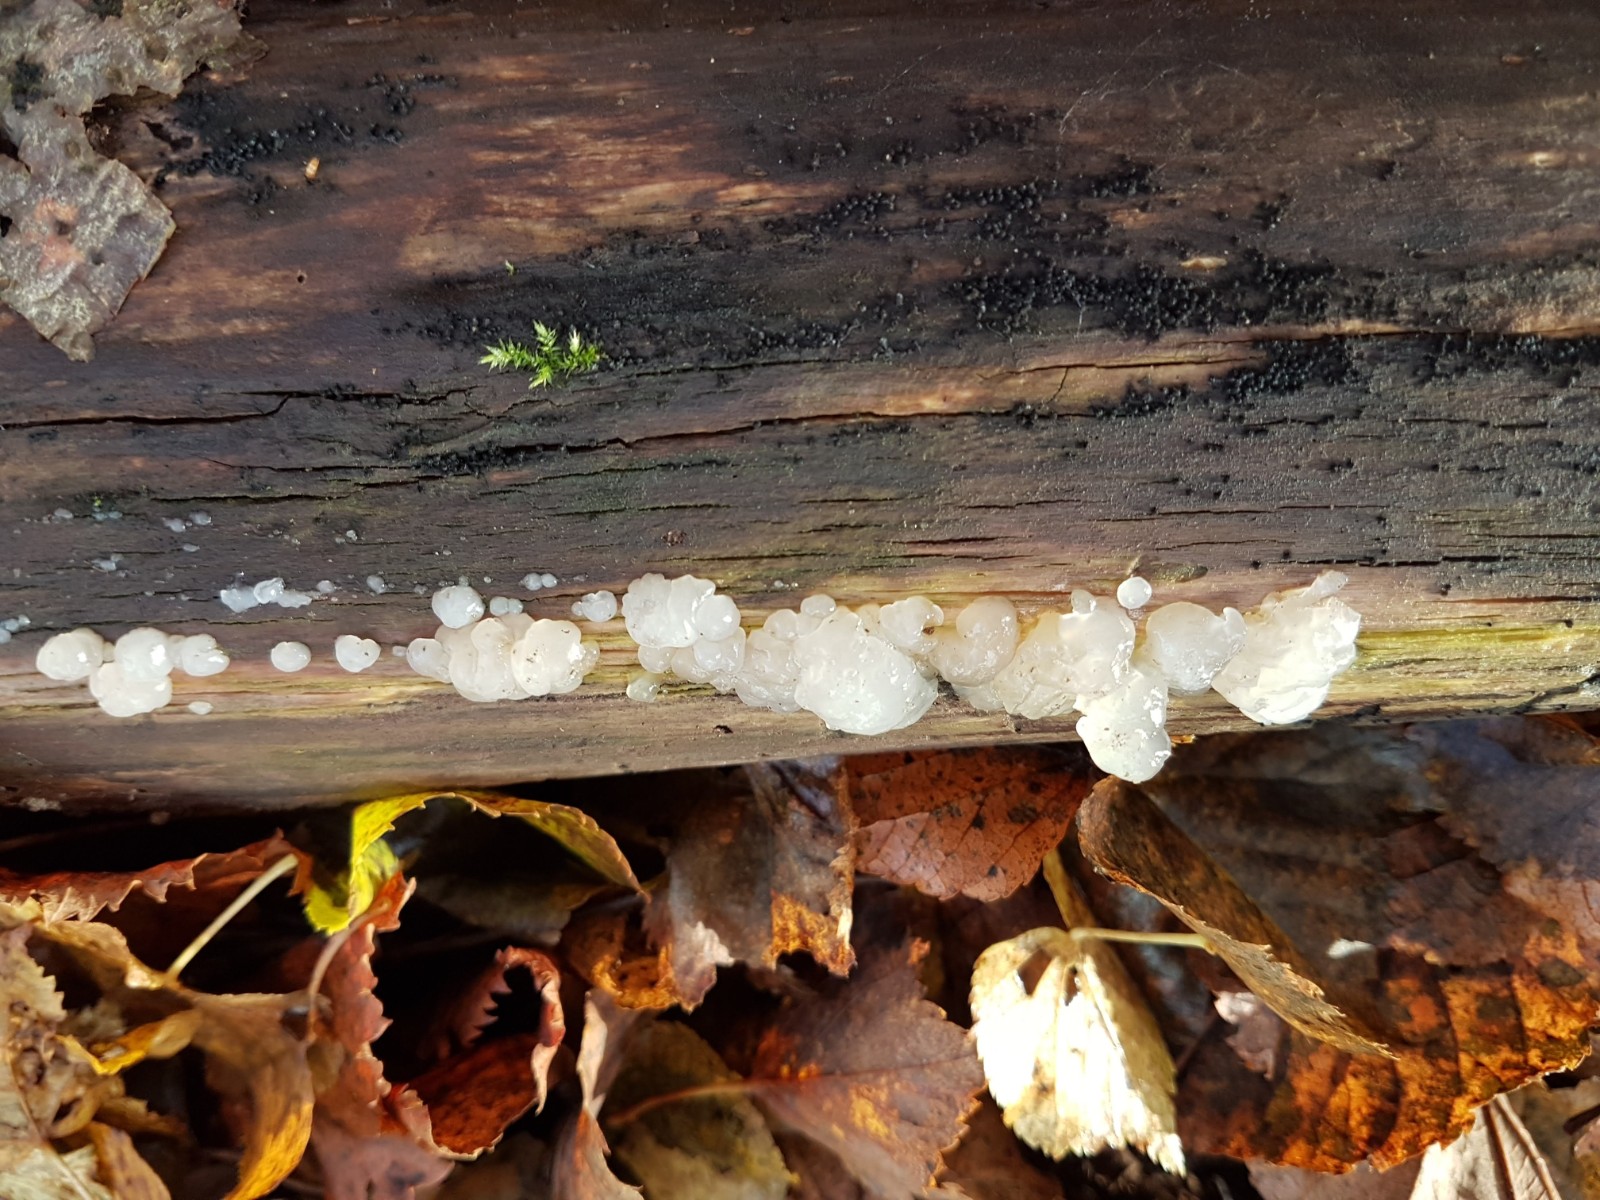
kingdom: Fungi
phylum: Basidiomycota
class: Agaricomycetes
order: Auriculariales
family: Hyaloriaceae
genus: Myxarium
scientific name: Myxarium
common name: bævretop
